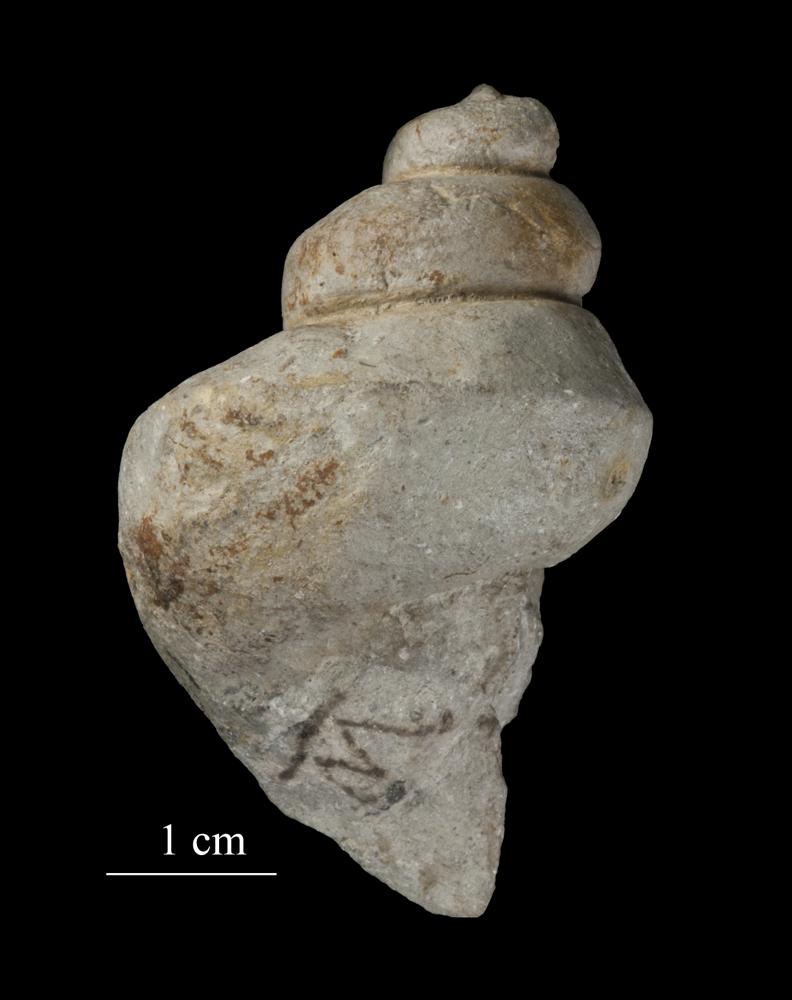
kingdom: Animalia
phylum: Mollusca
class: Gastropoda
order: Neogastropoda
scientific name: Neogastropoda
